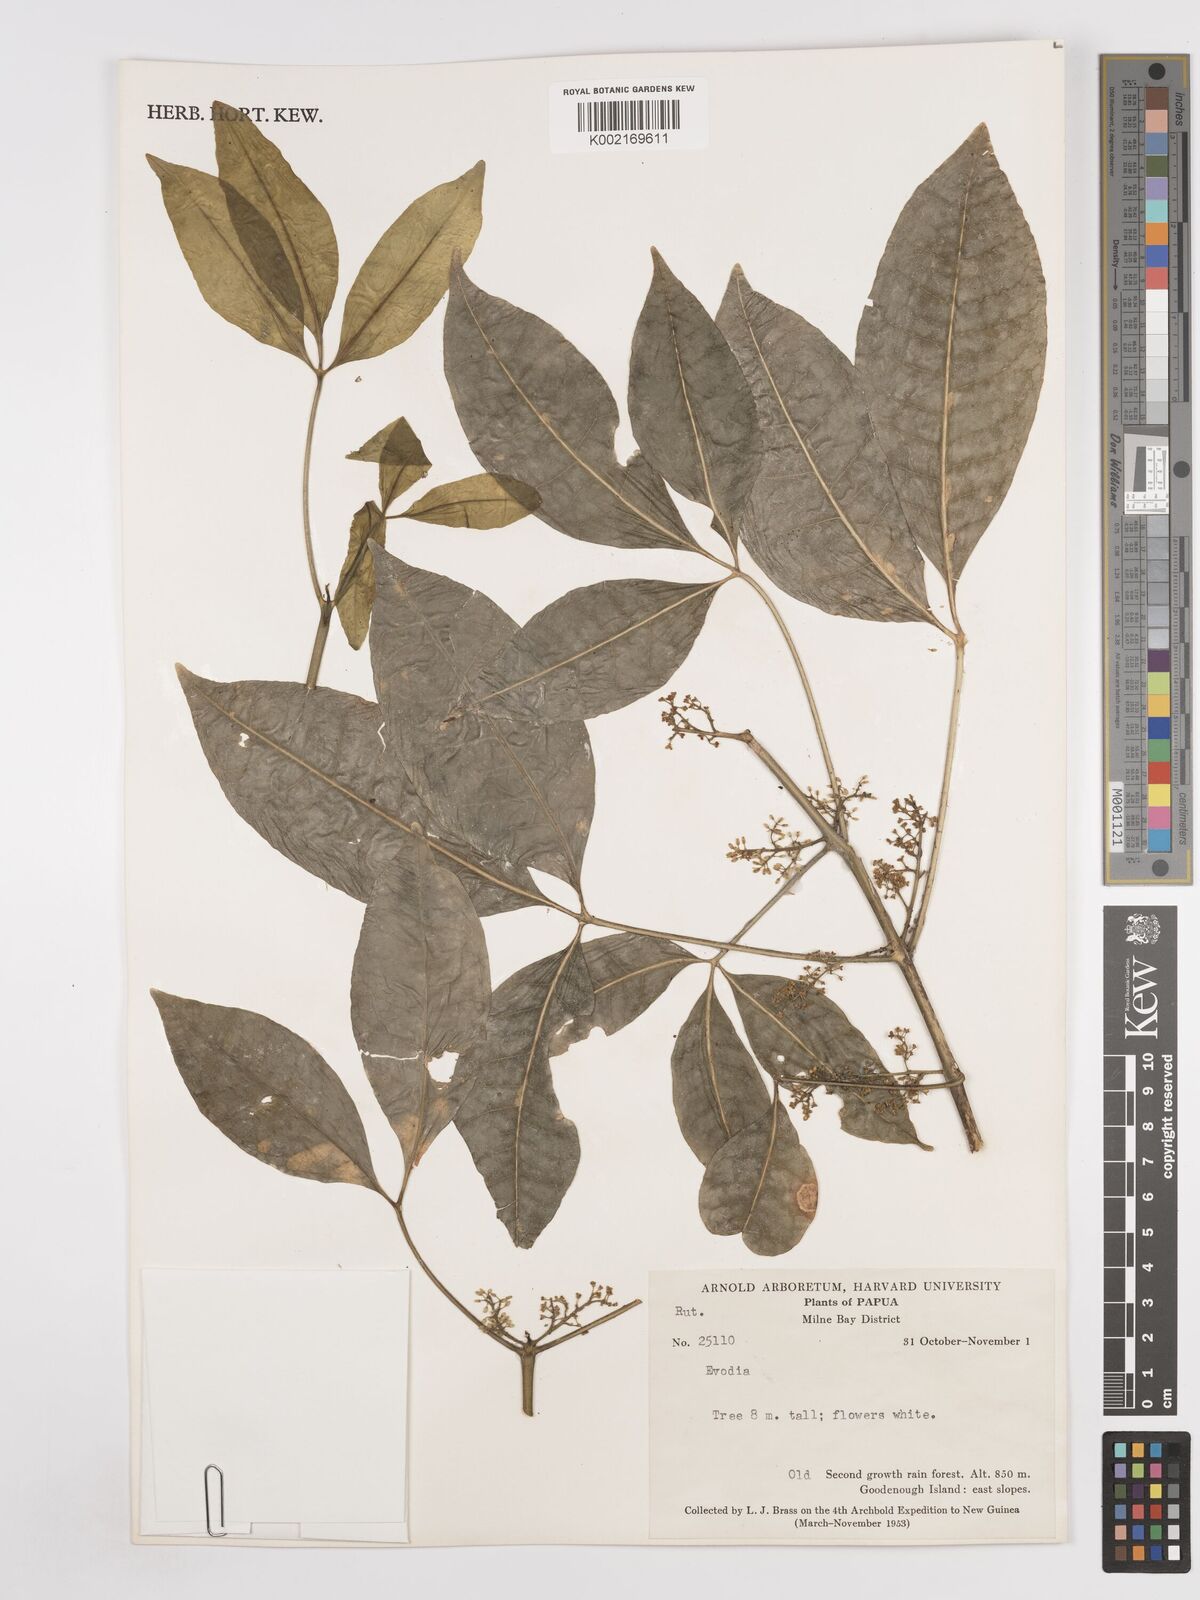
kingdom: Plantae
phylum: Tracheophyta
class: Magnoliopsida
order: Sapindales
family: Rutaceae
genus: Euodia
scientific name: Euodia
